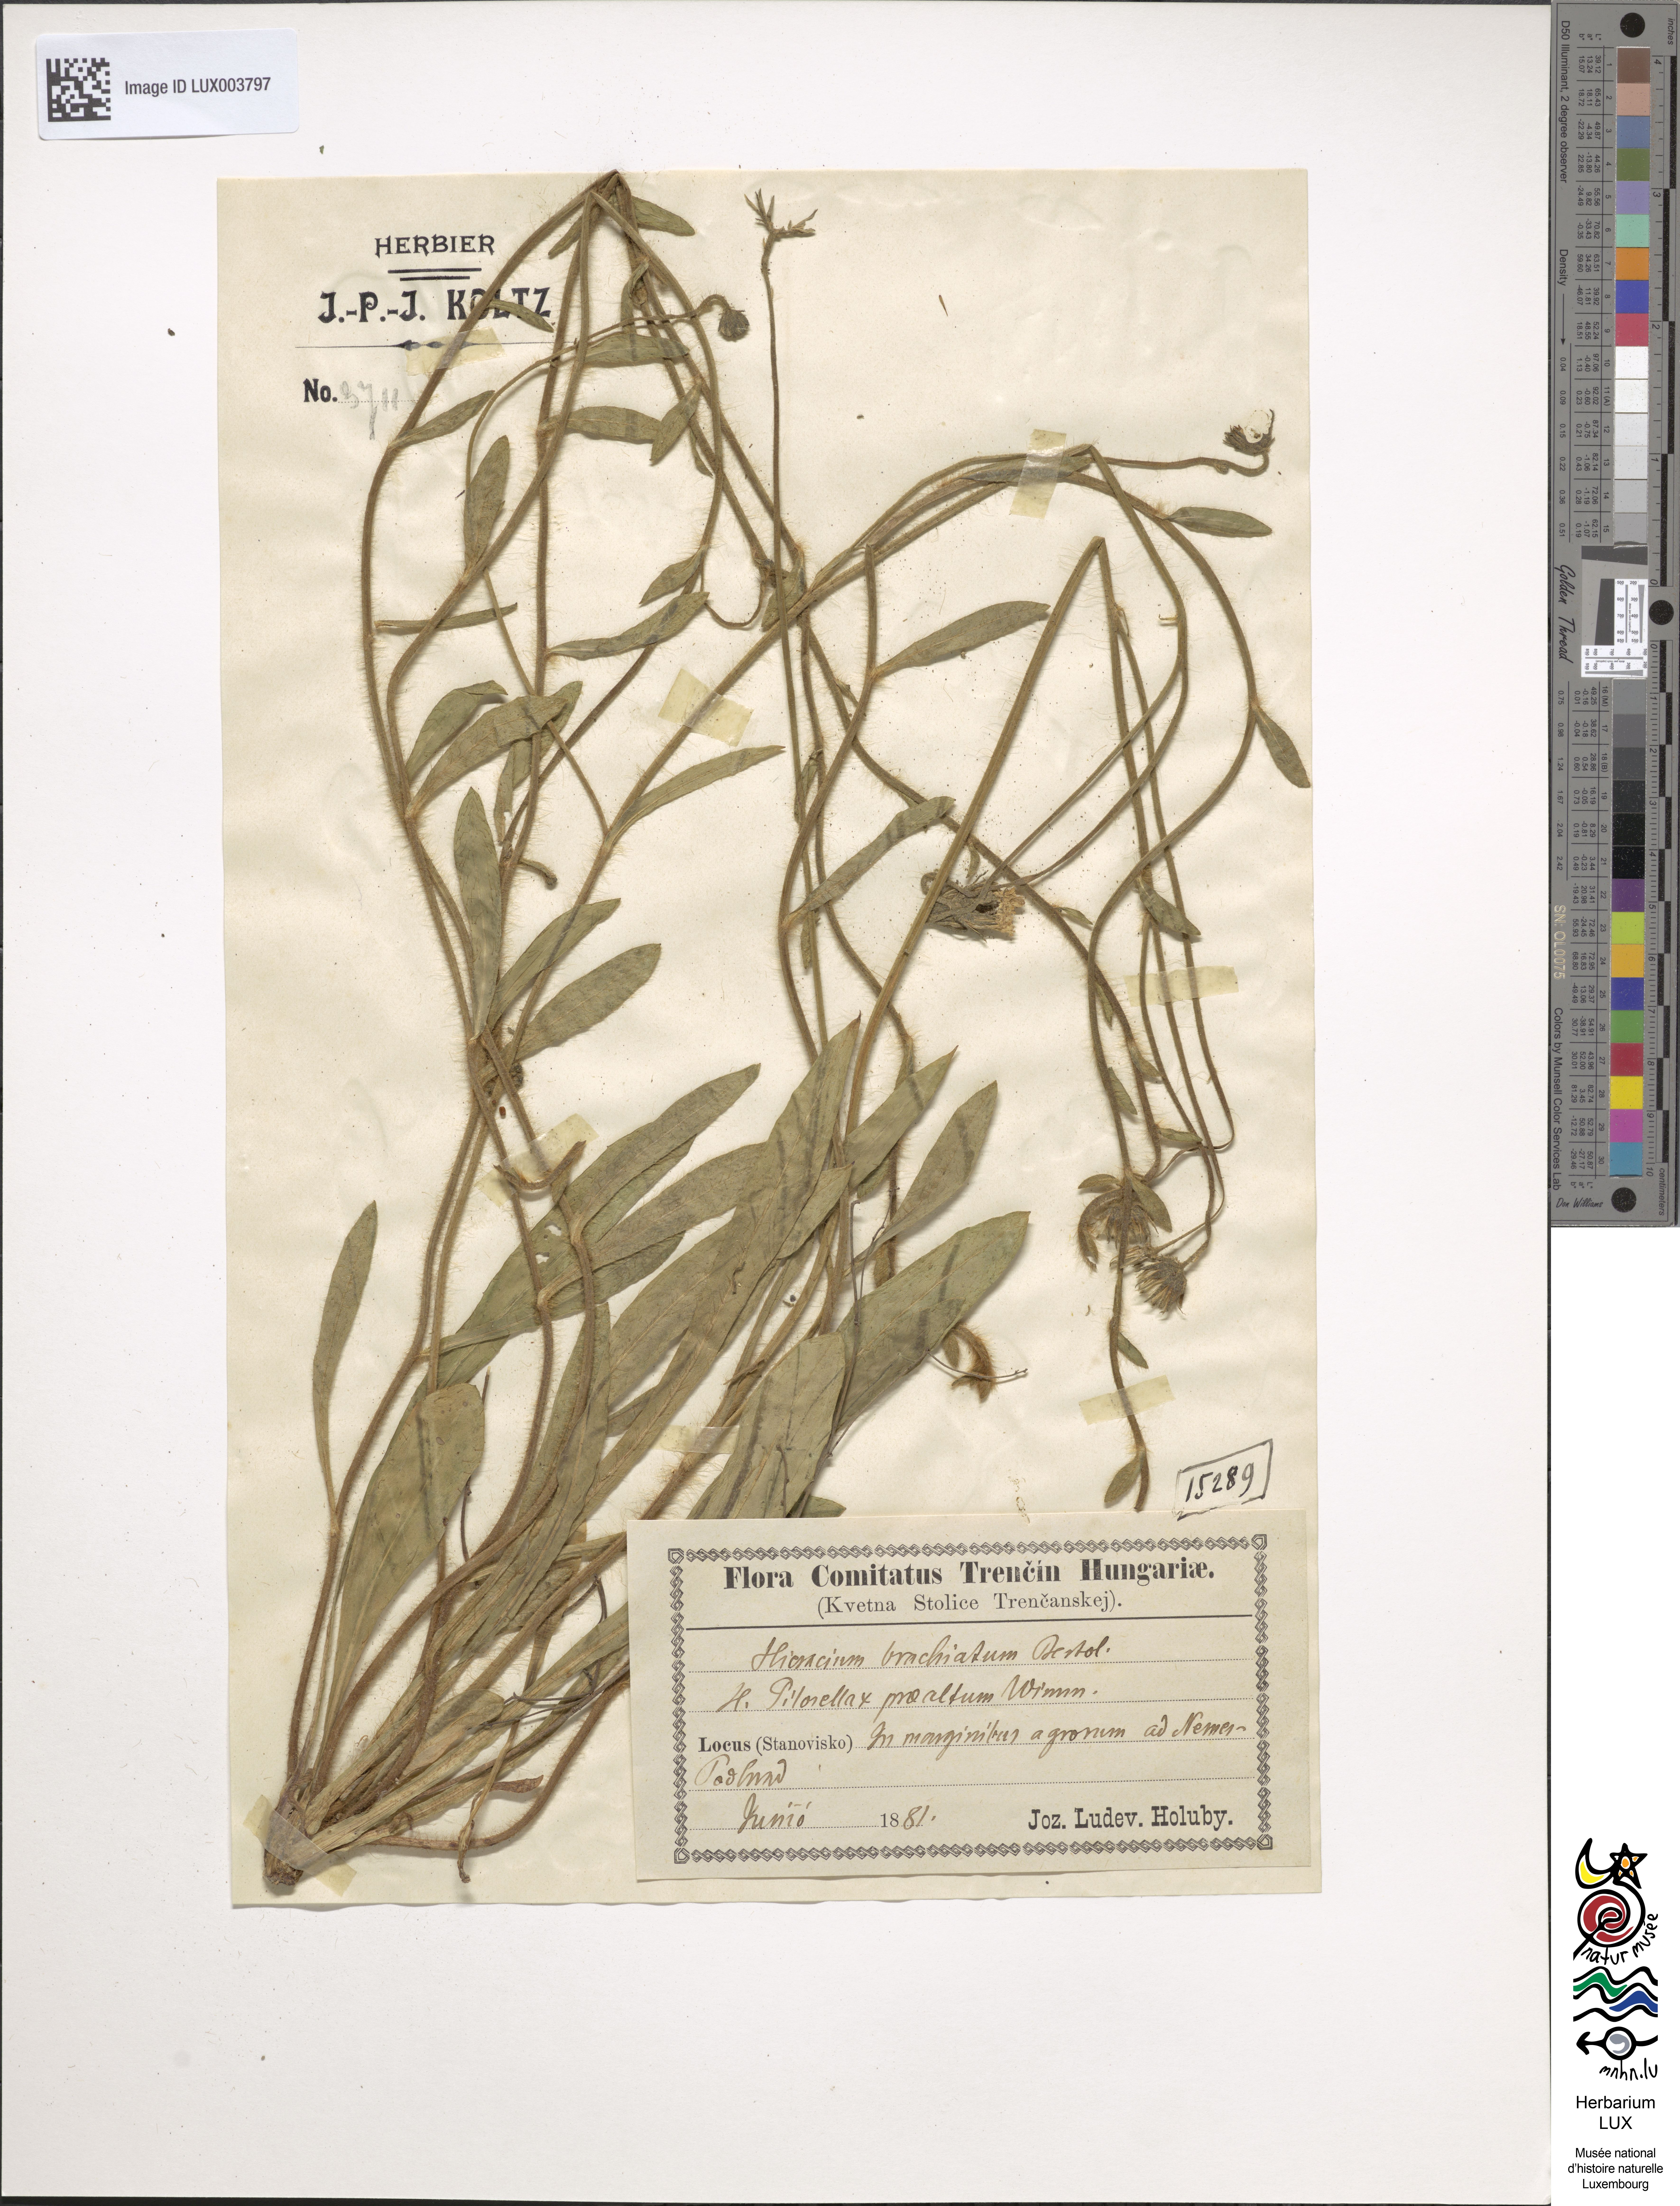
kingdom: Plantae
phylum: Tracheophyta
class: Magnoliopsida
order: Asterales
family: Asteraceae
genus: Pilosella
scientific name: Pilosella acutifolia
